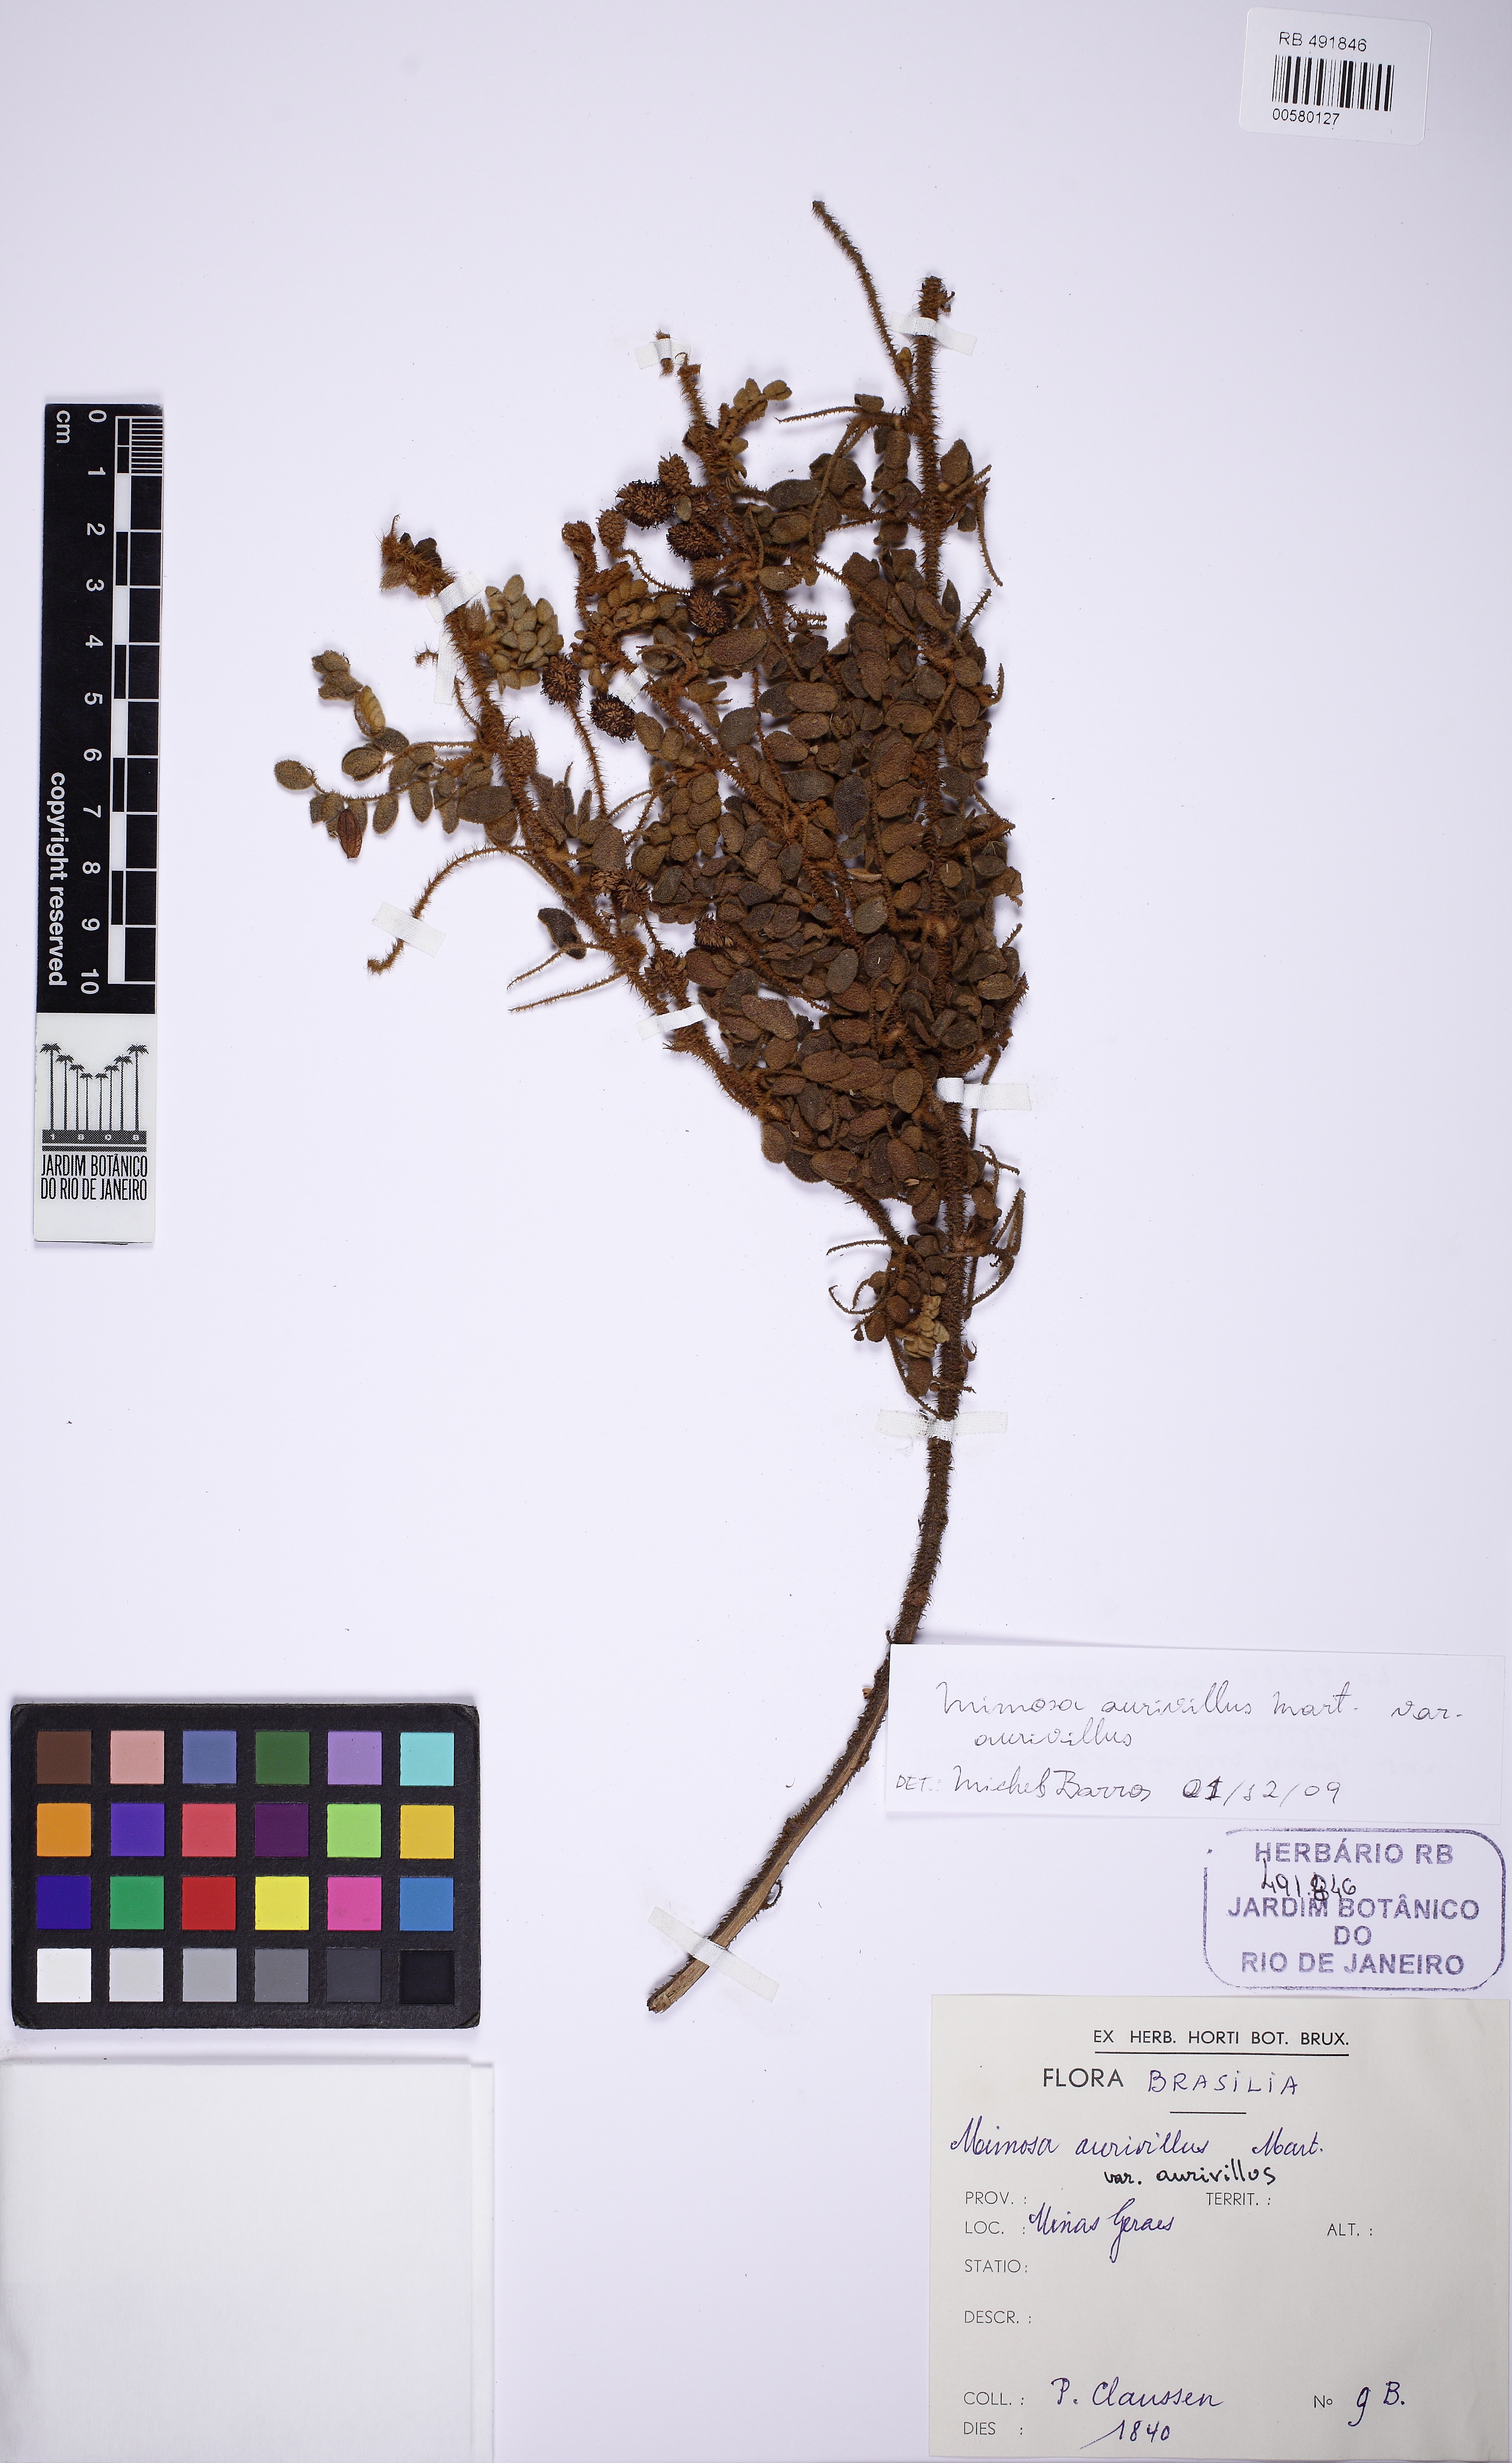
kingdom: Plantae
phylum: Tracheophyta
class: Magnoliopsida
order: Fabales
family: Fabaceae
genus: Mimosa
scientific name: Mimosa aurivillus
